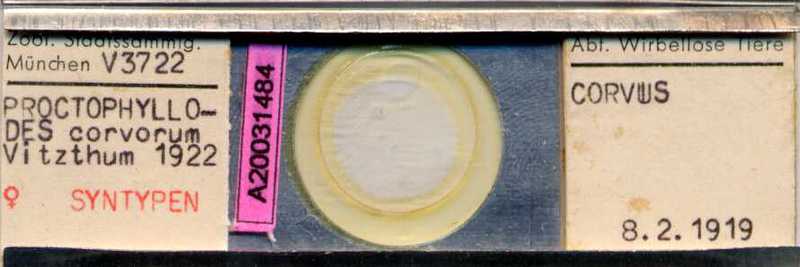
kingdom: Animalia
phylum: Arthropoda
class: Arachnida
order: Sarcoptiformes
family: Proctophyllodidae
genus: Proctophyllodes
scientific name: Proctophyllodes corvorum
